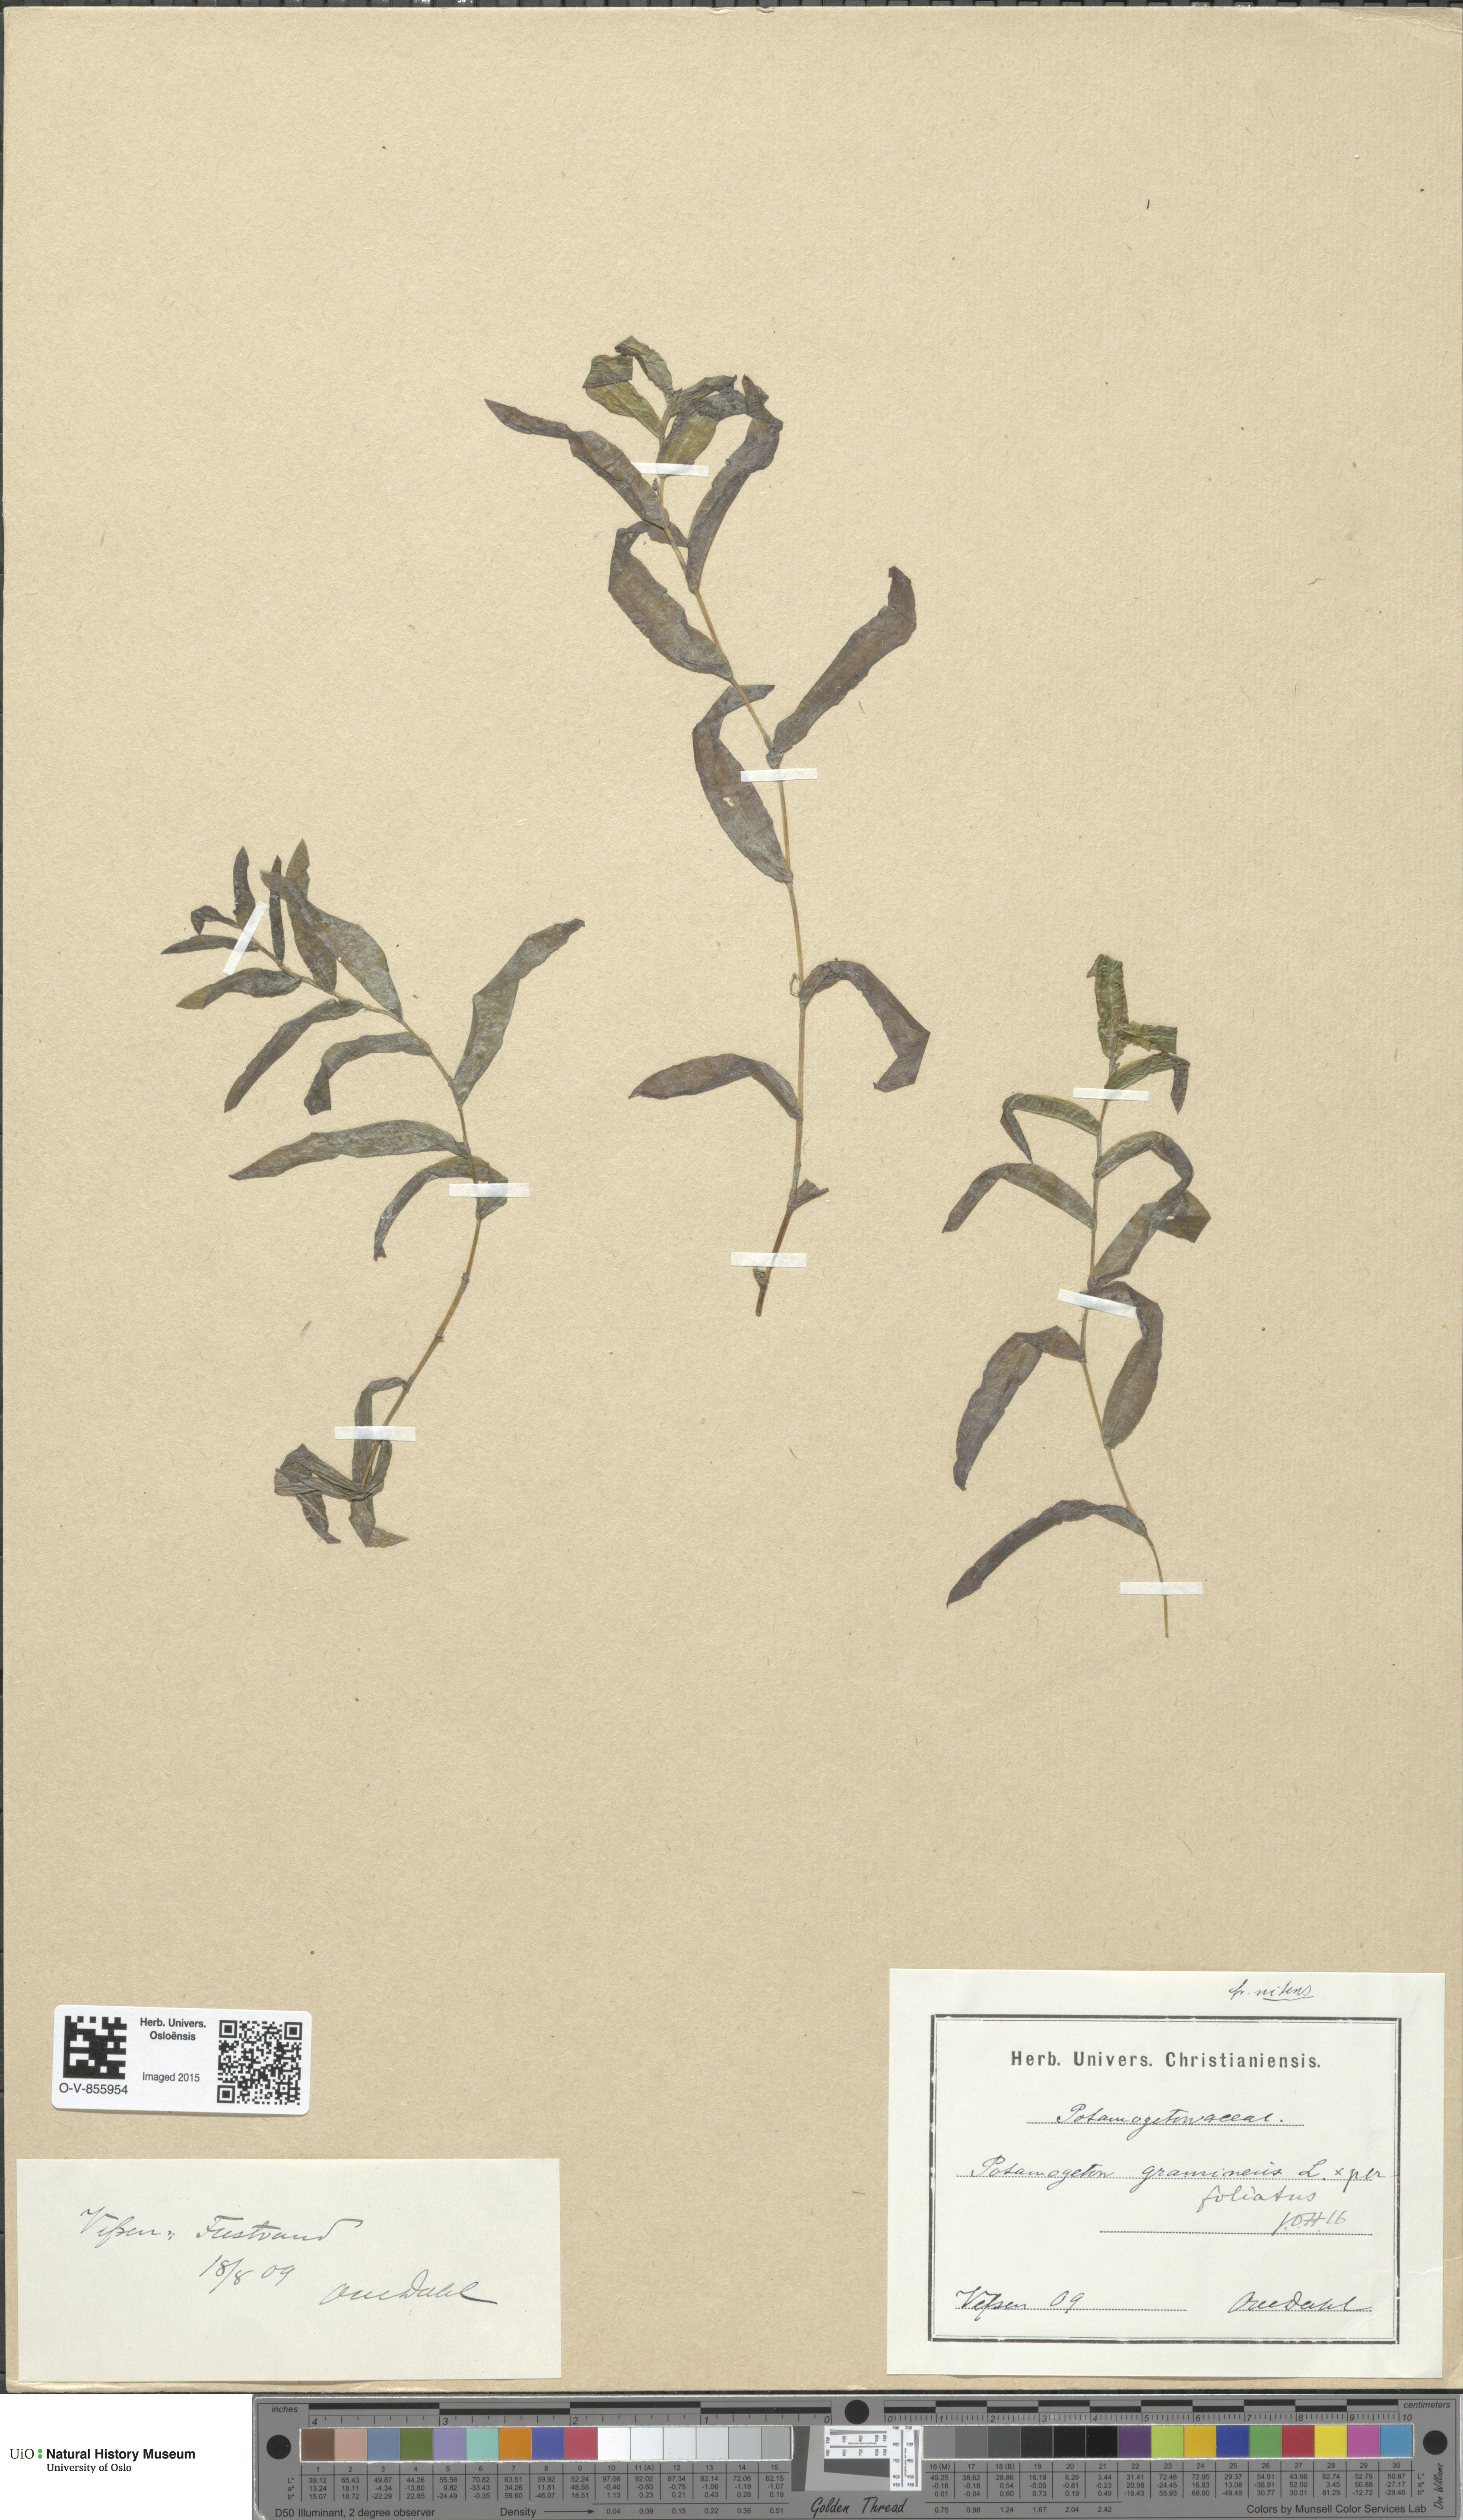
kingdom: Plantae
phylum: Tracheophyta
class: Liliopsida
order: Alismatales
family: Potamogetonaceae
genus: Potamogeton
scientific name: Potamogeton nitens
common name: Pondweed
